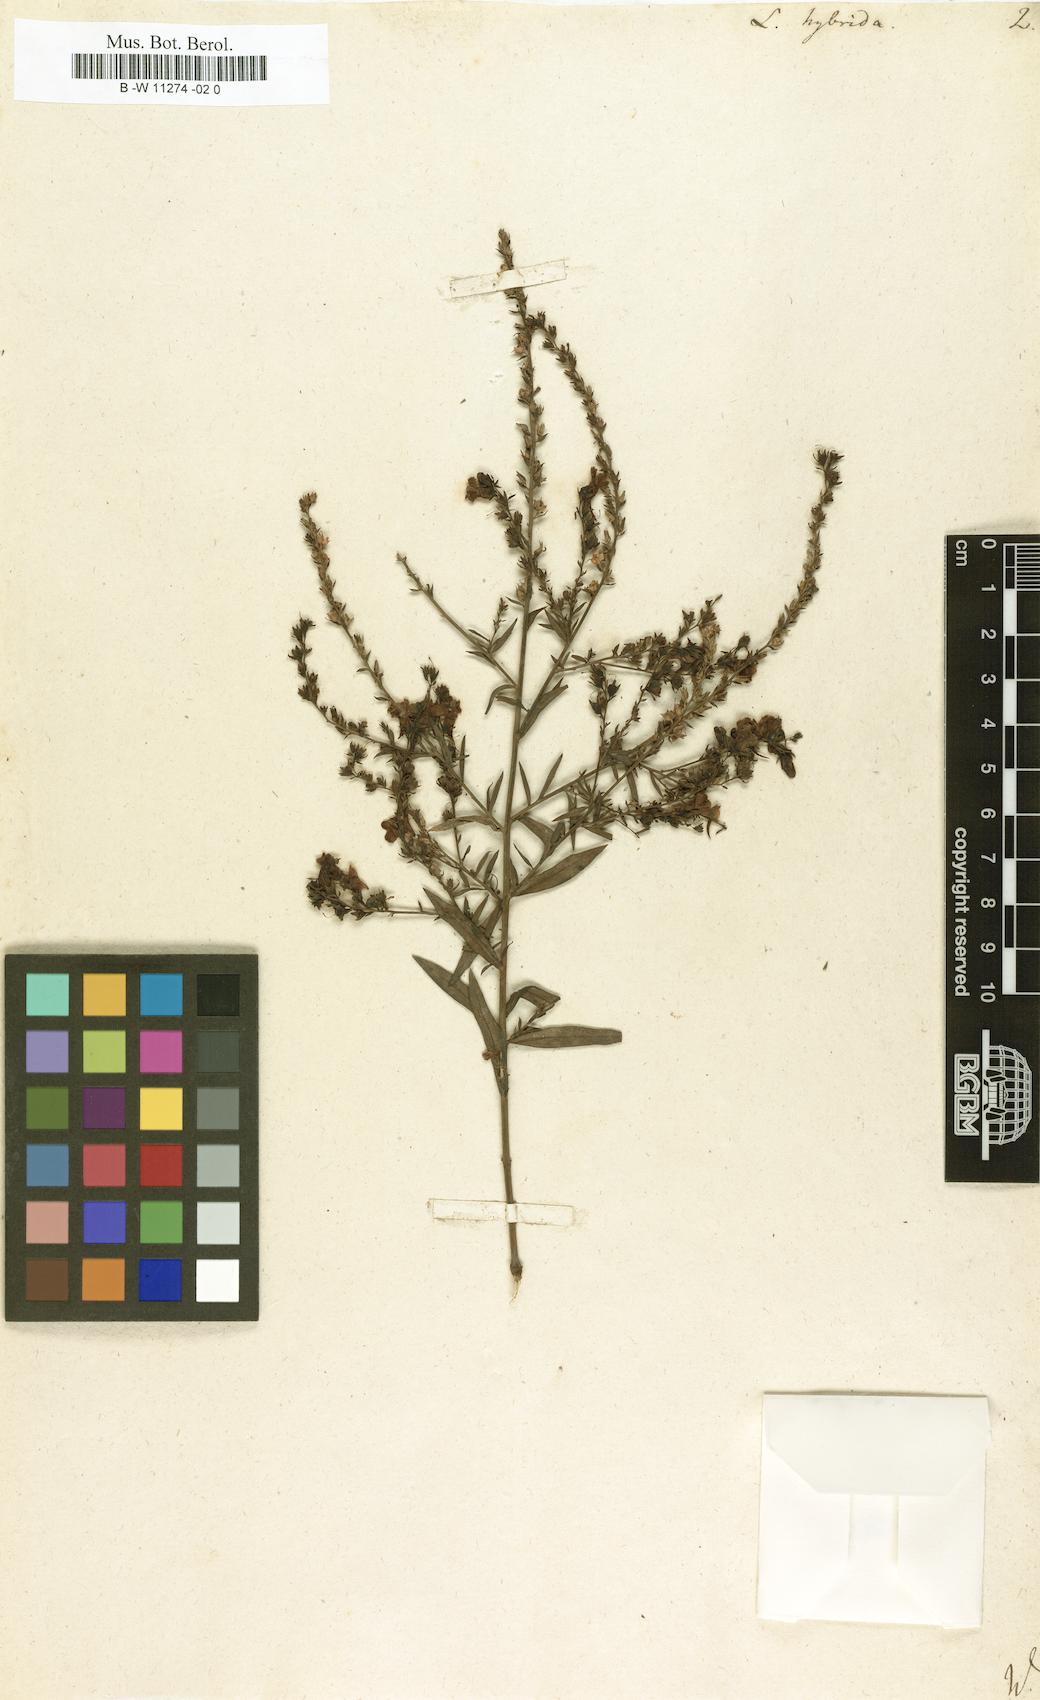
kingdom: Plantae
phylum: Tracheophyta
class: Magnoliopsida
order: Lamiales
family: Plantaginaceae
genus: Linaria
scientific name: Linaria hybrida
